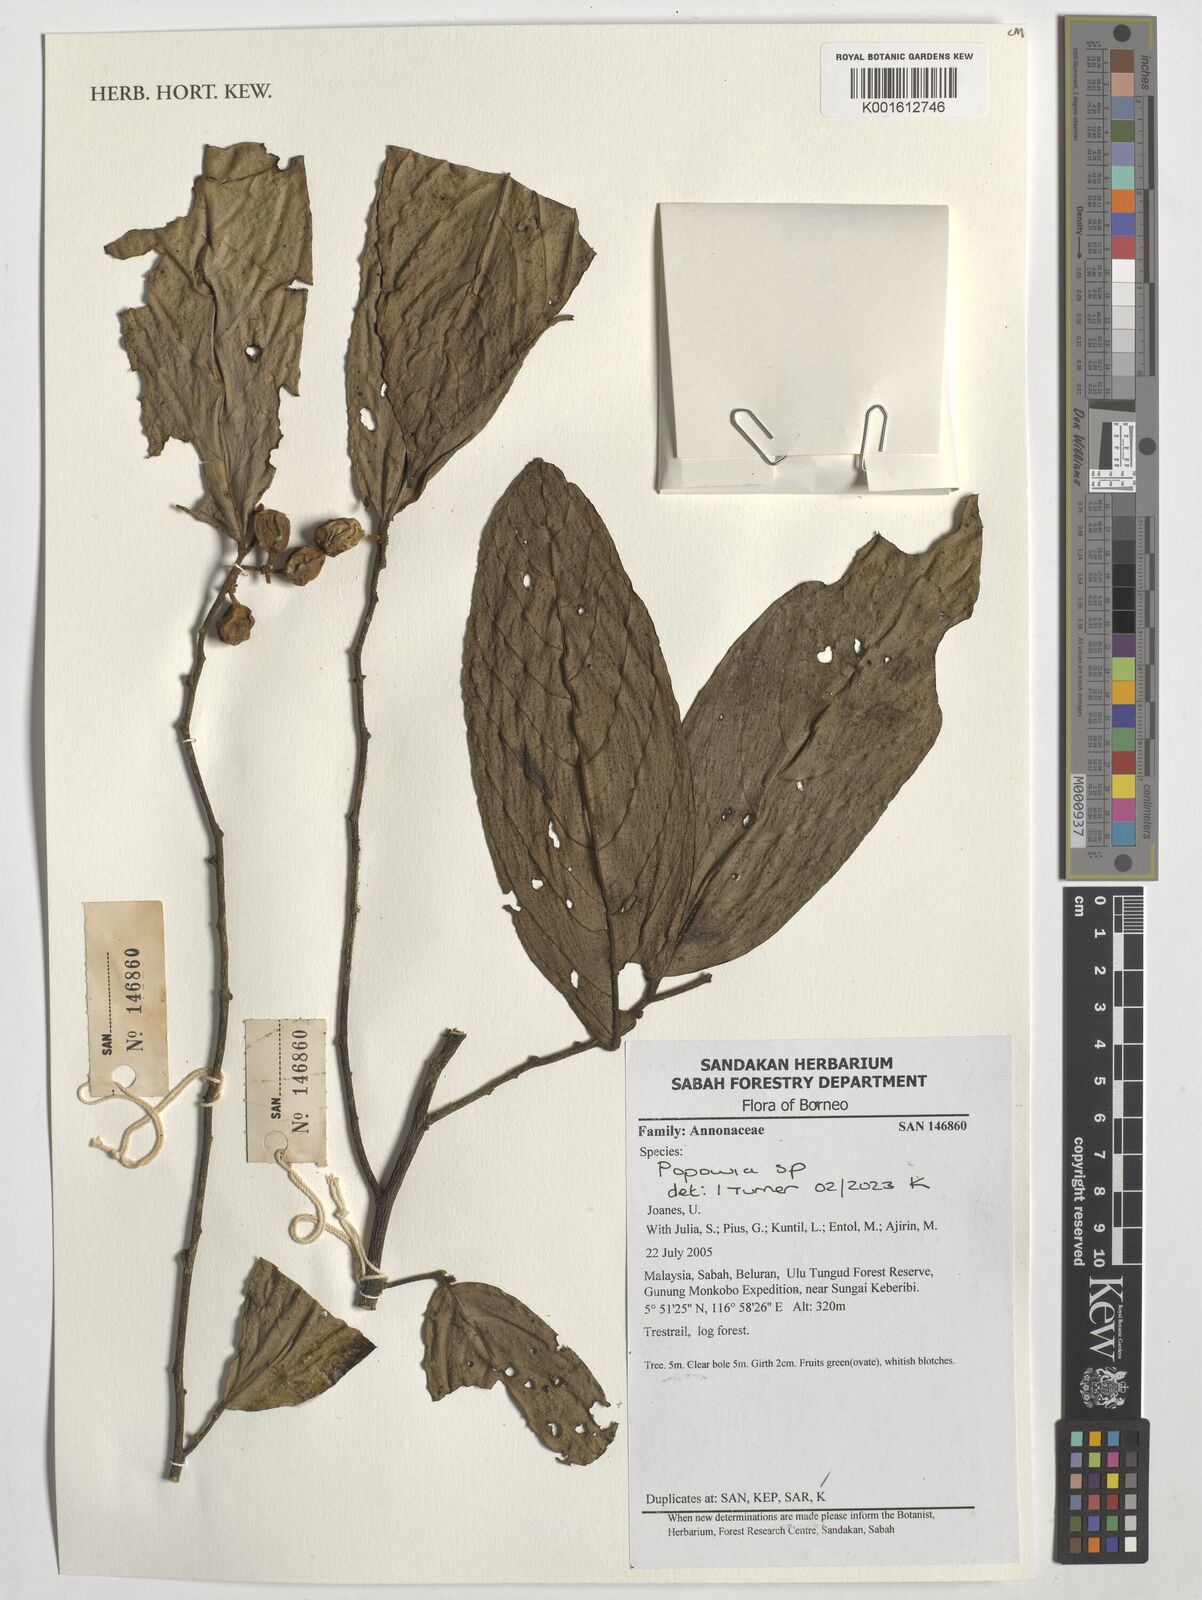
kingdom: Plantae
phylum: Tracheophyta
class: Magnoliopsida
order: Magnoliales
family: Annonaceae
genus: Popowia
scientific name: Popowia
